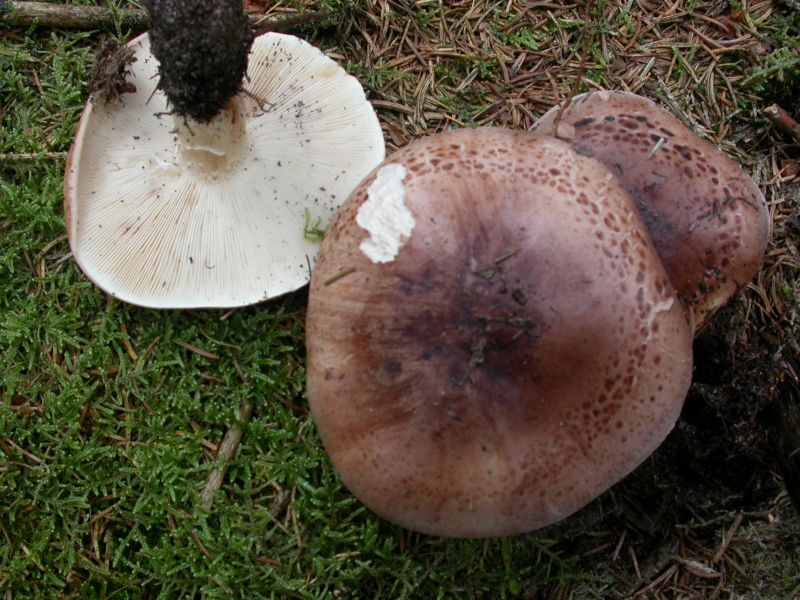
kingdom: Fungi
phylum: Basidiomycota
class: Agaricomycetes
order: Agaricales
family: Tricholomataceae
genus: Tricholoma
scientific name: Tricholoma pessundatum
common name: dråbeplettet ridderhat
